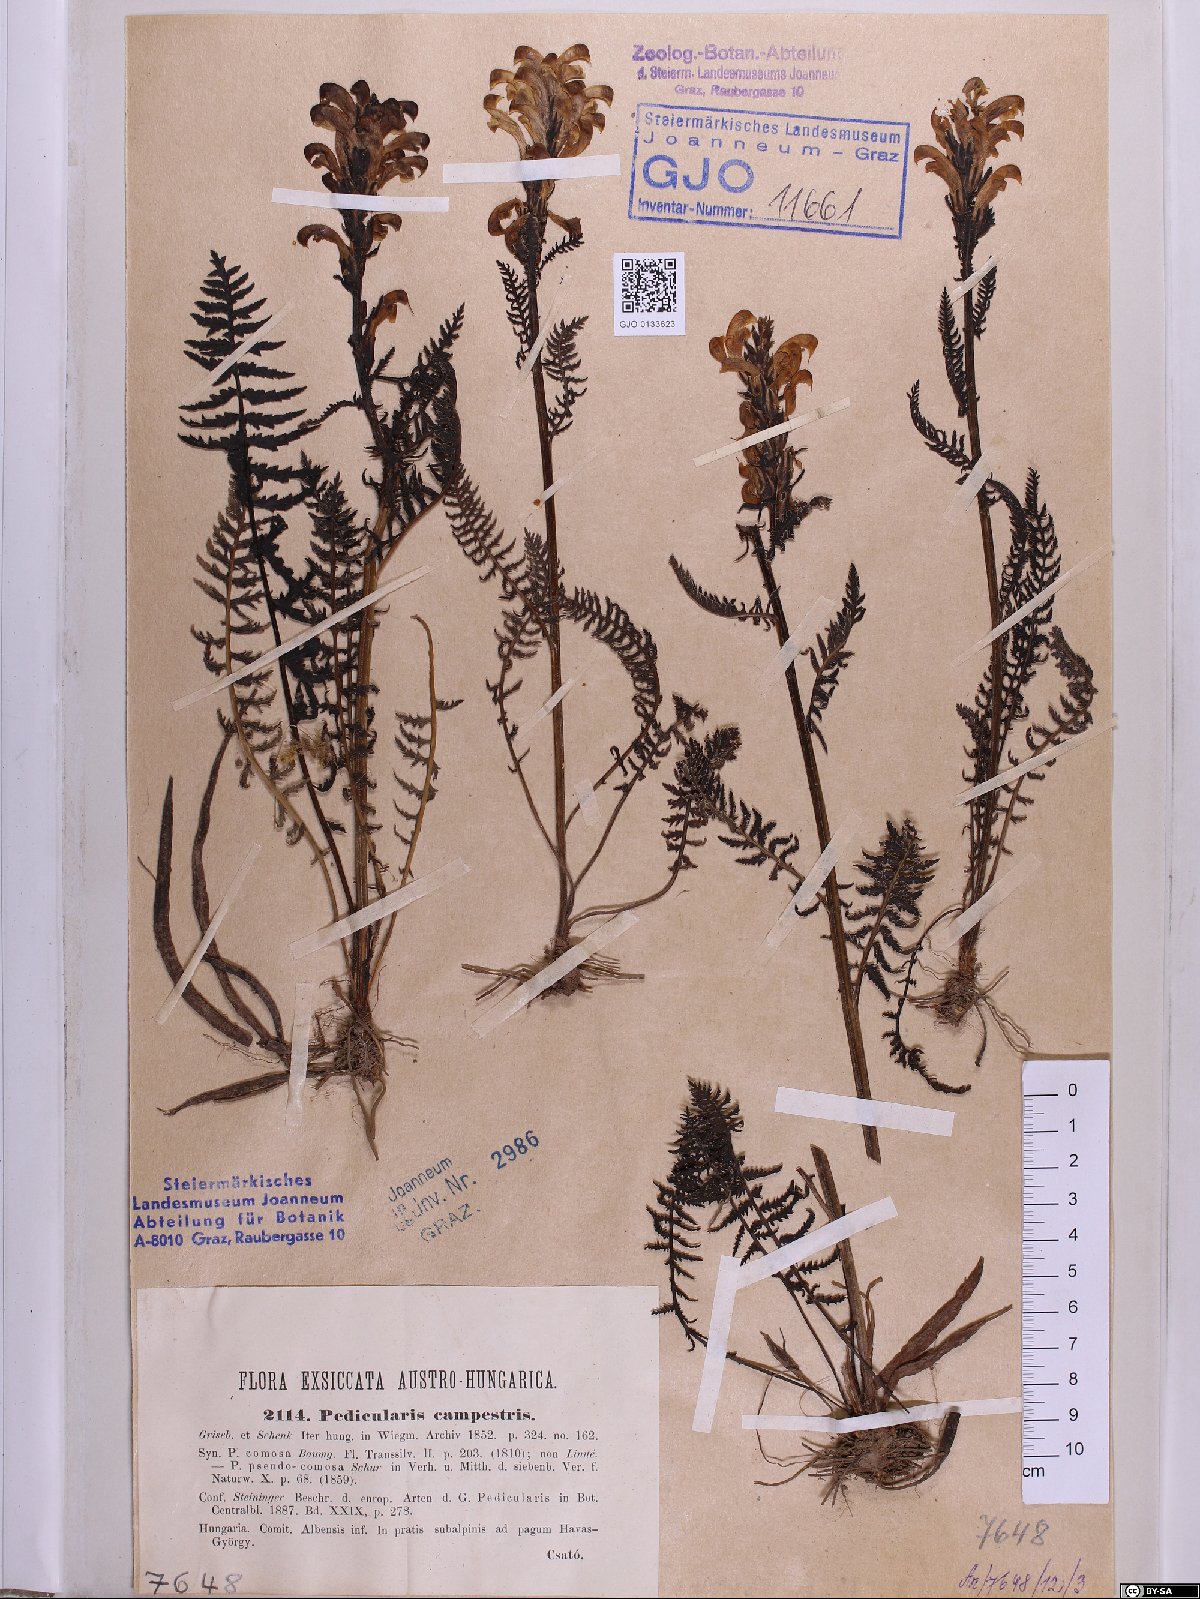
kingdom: Plantae
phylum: Tracheophyta
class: Magnoliopsida
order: Lamiales
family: Orobanchaceae
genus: Pedicularis
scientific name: Pedicularis comosa
